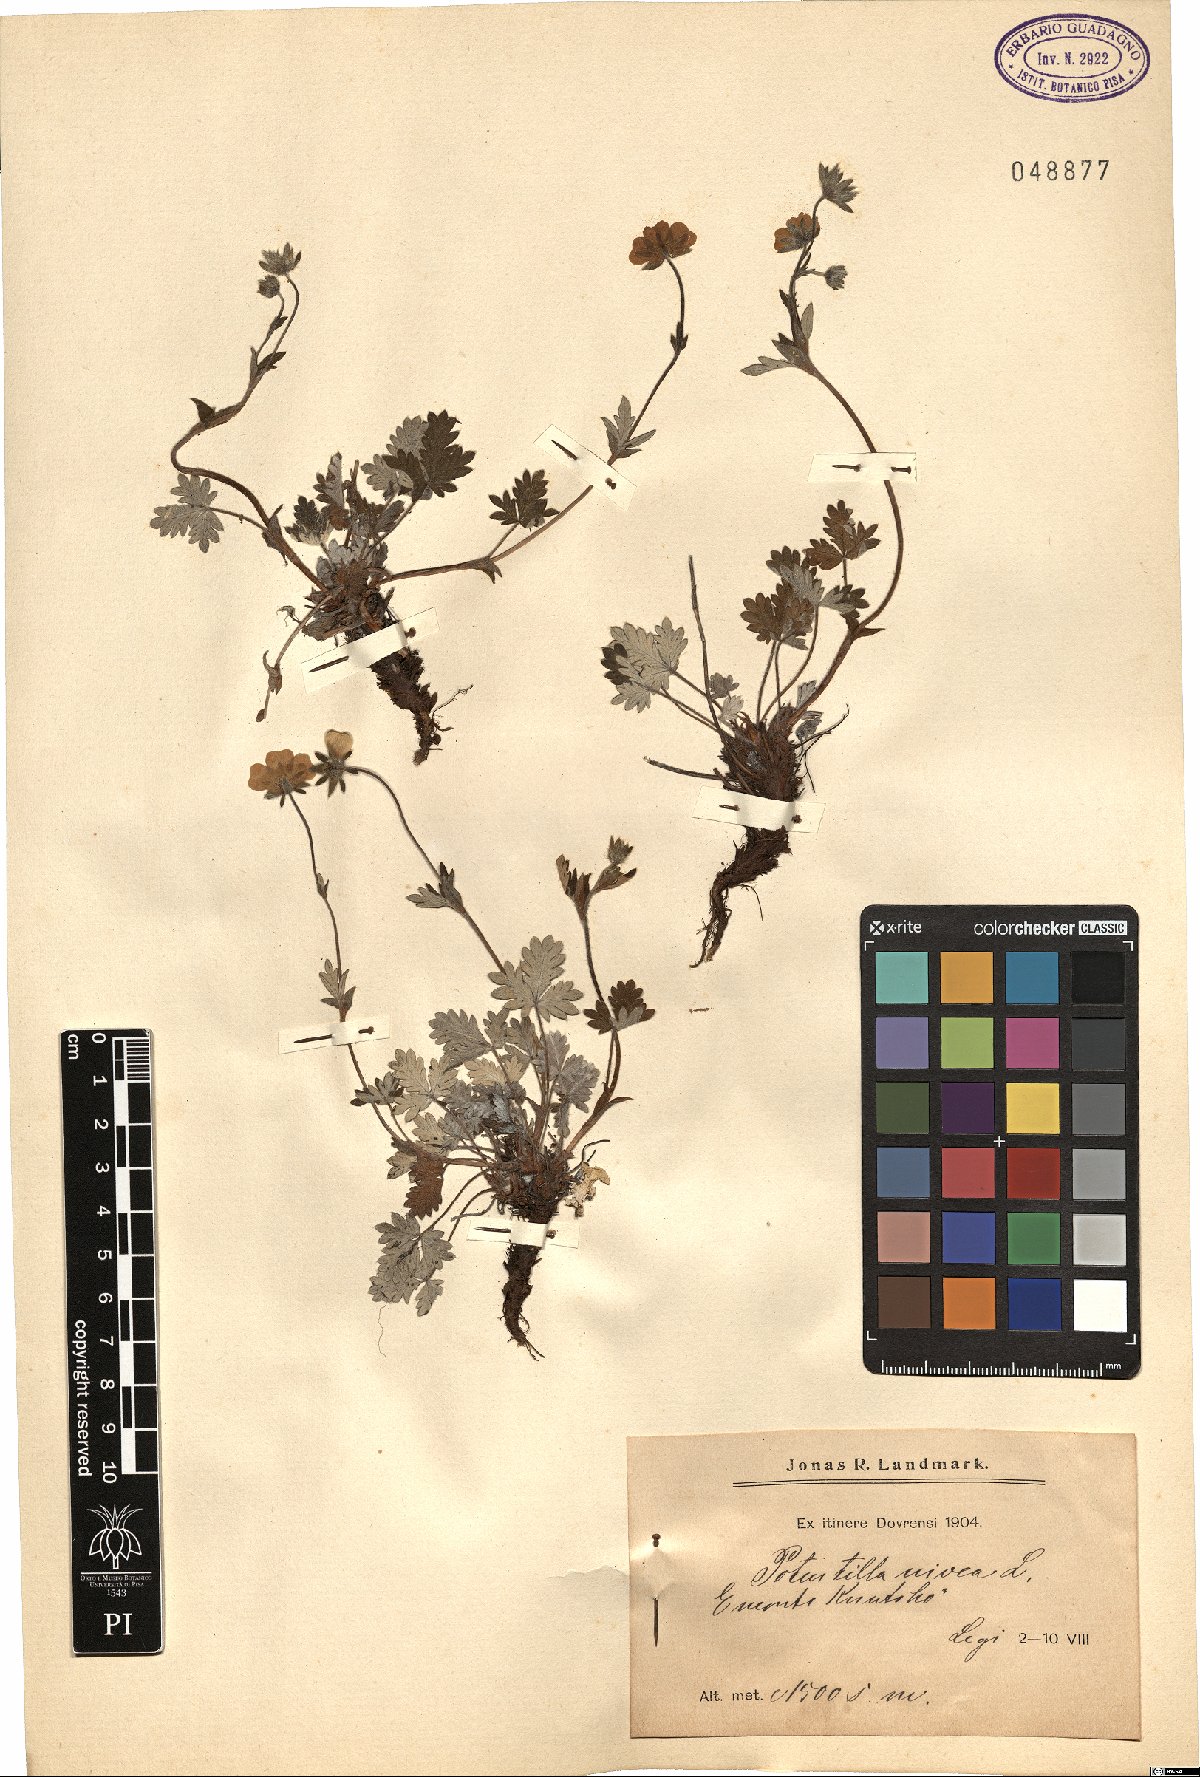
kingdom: Plantae
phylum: Tracheophyta
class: Magnoliopsida
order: Rosales
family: Rosaceae
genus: Potentilla
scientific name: Potentilla nivea
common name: Snow cinquefoil
